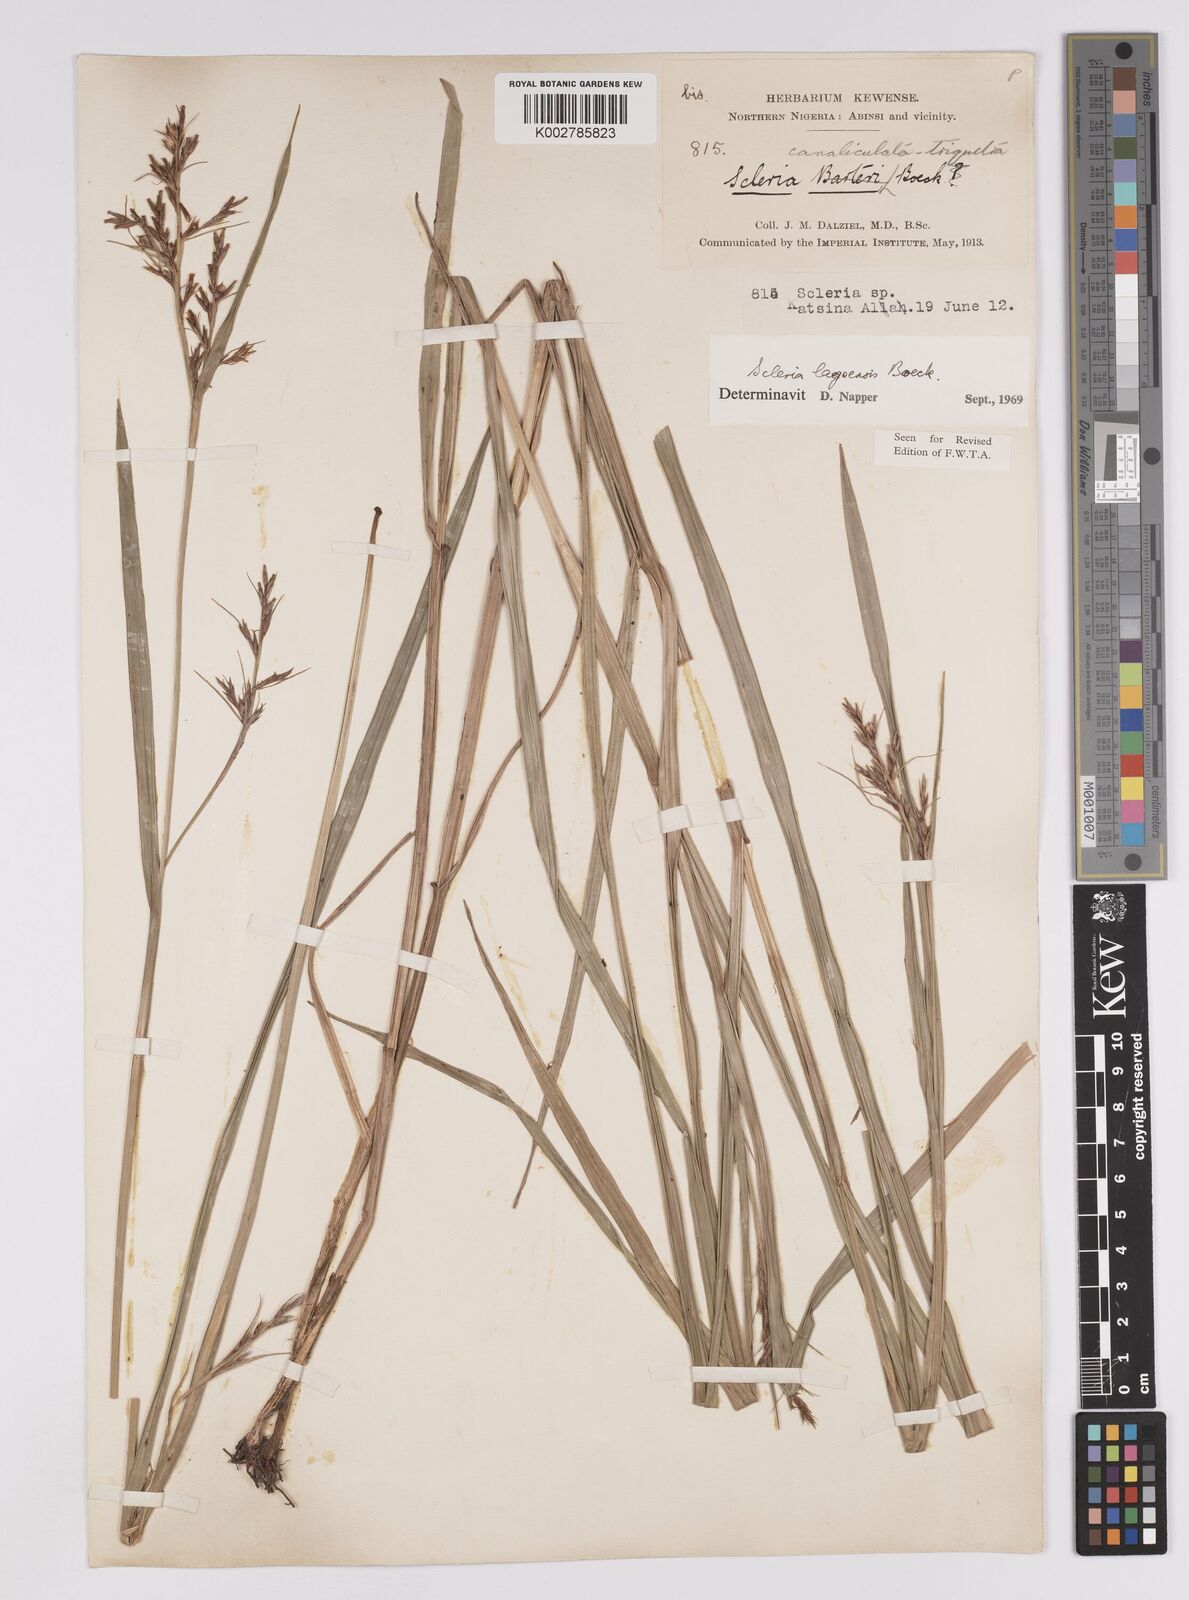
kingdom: Plantae
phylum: Tracheophyta
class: Liliopsida
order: Poales
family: Cyperaceae
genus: Scleria
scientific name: Scleria lagoensis
